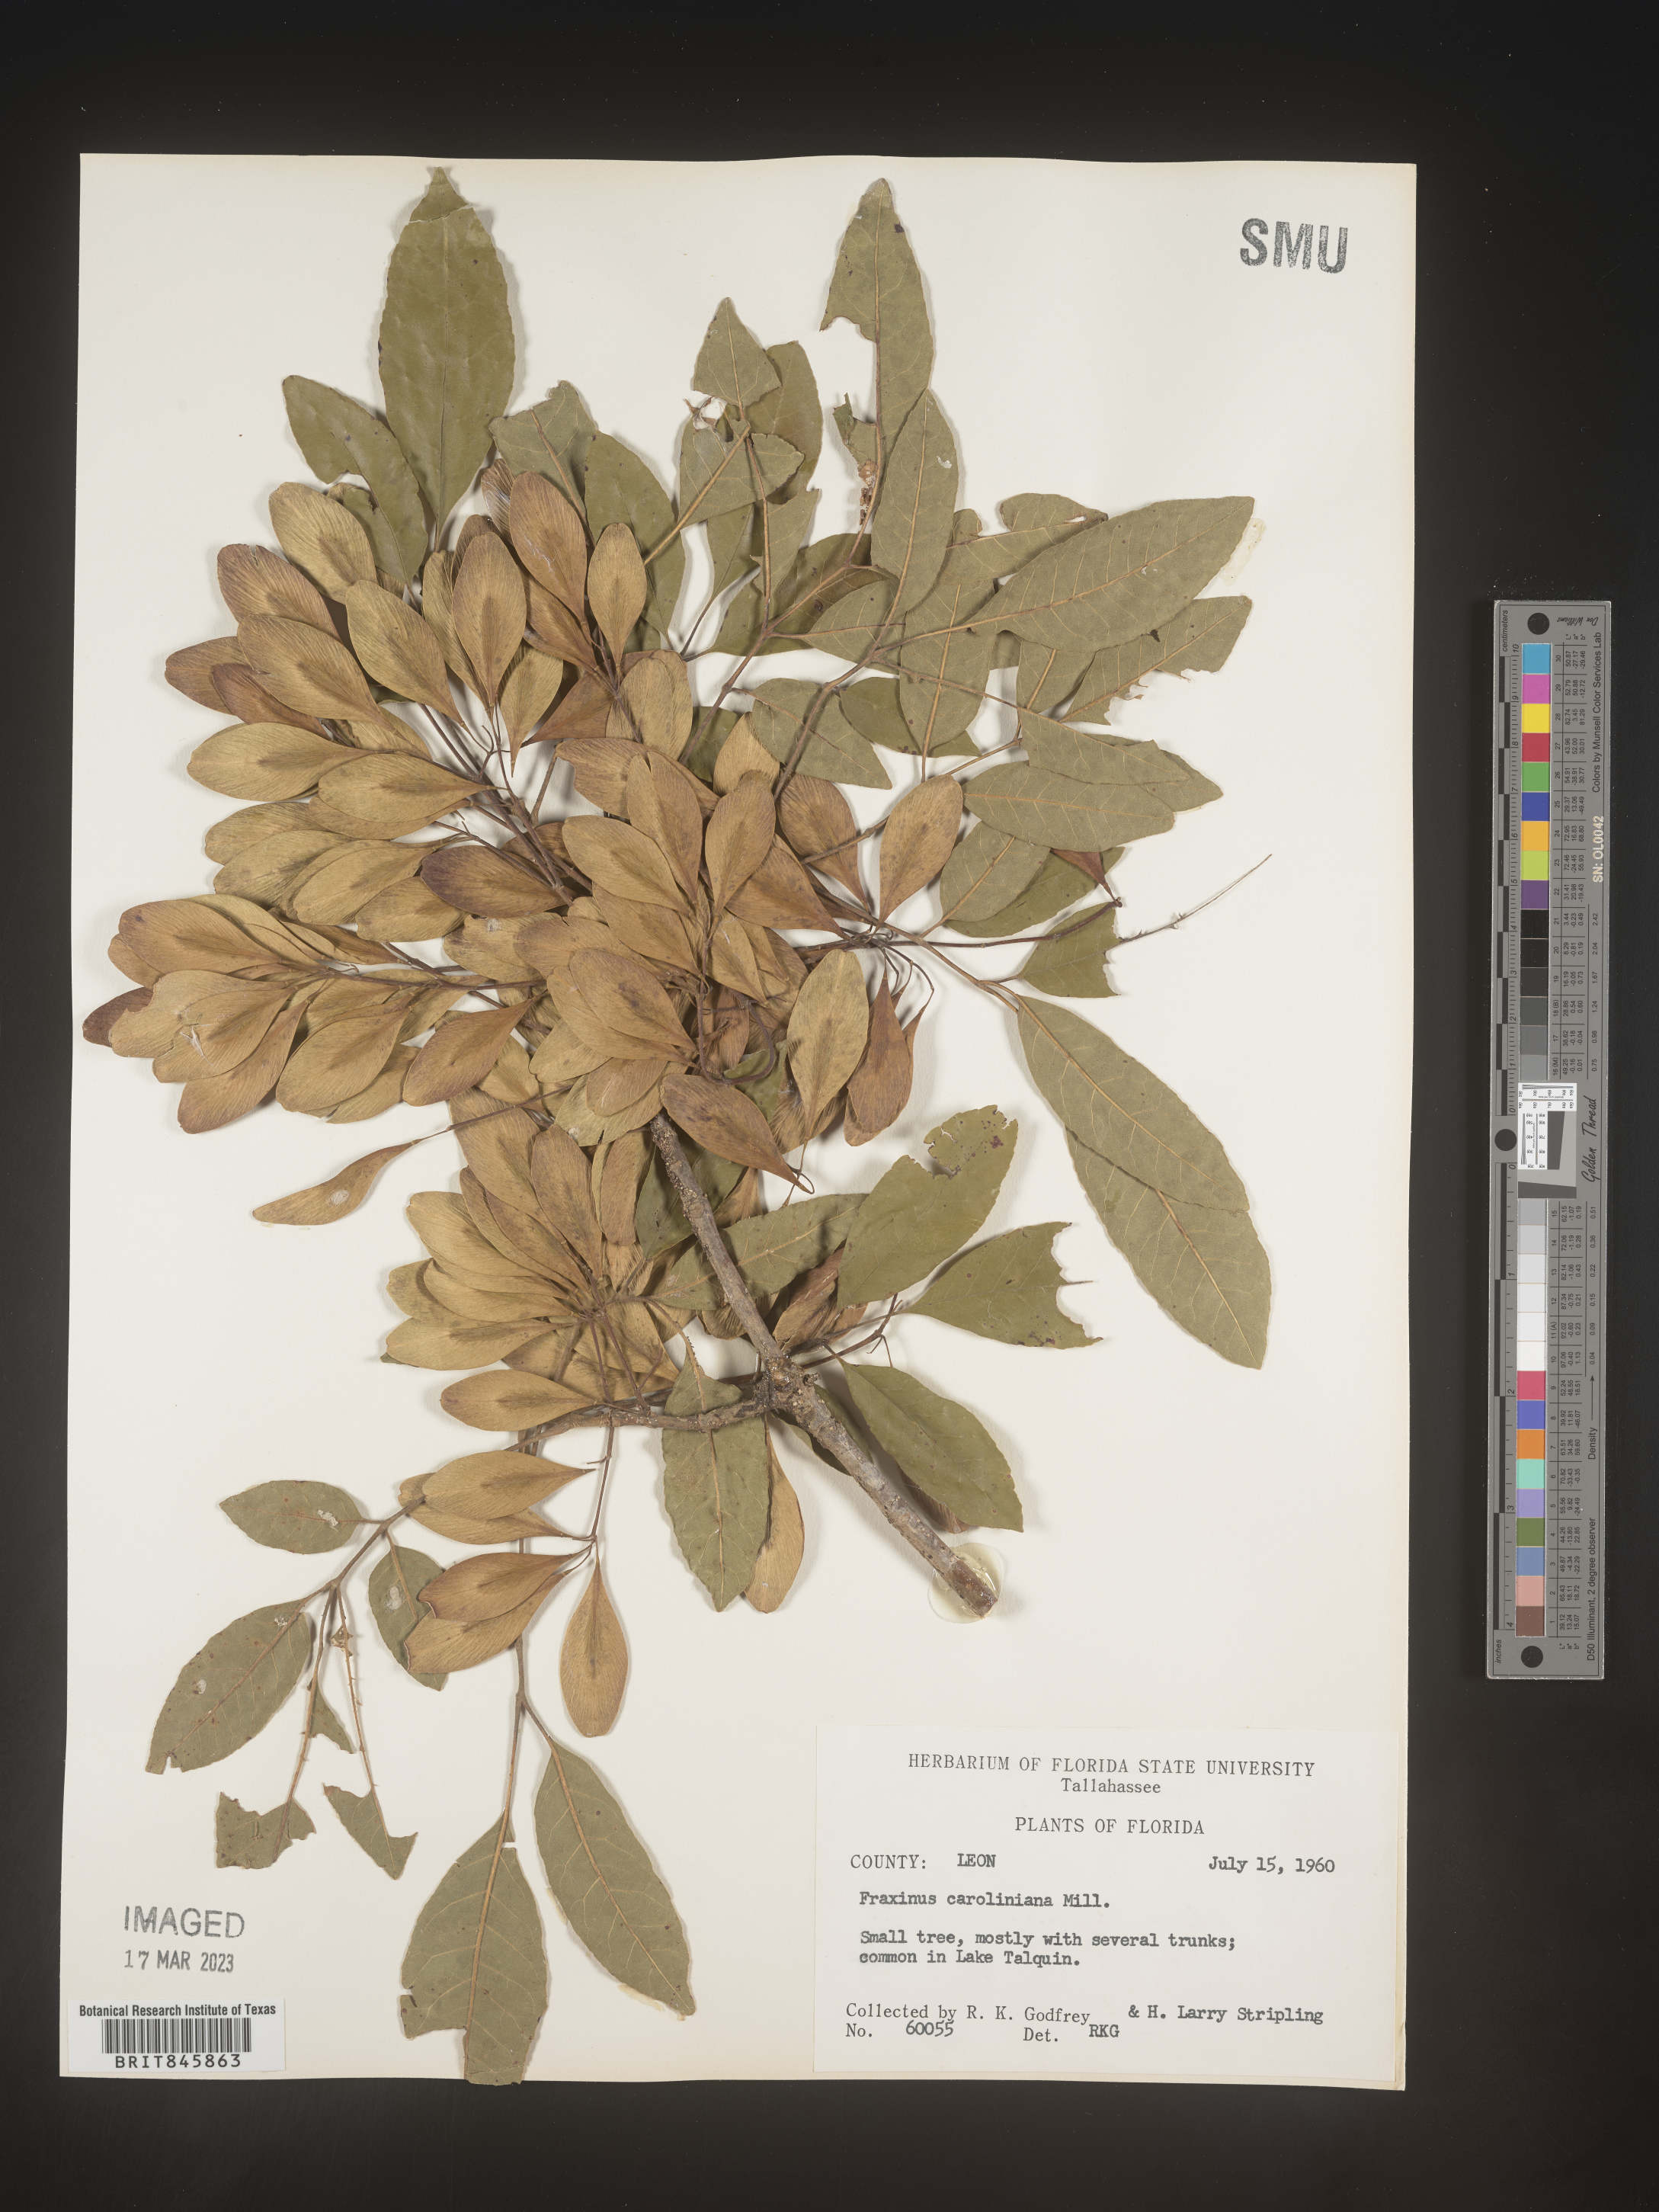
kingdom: Plantae
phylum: Tracheophyta
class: Magnoliopsida
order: Lamiales
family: Oleaceae
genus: Fraxinus
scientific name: Fraxinus caroliniana
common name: Carolina ash
